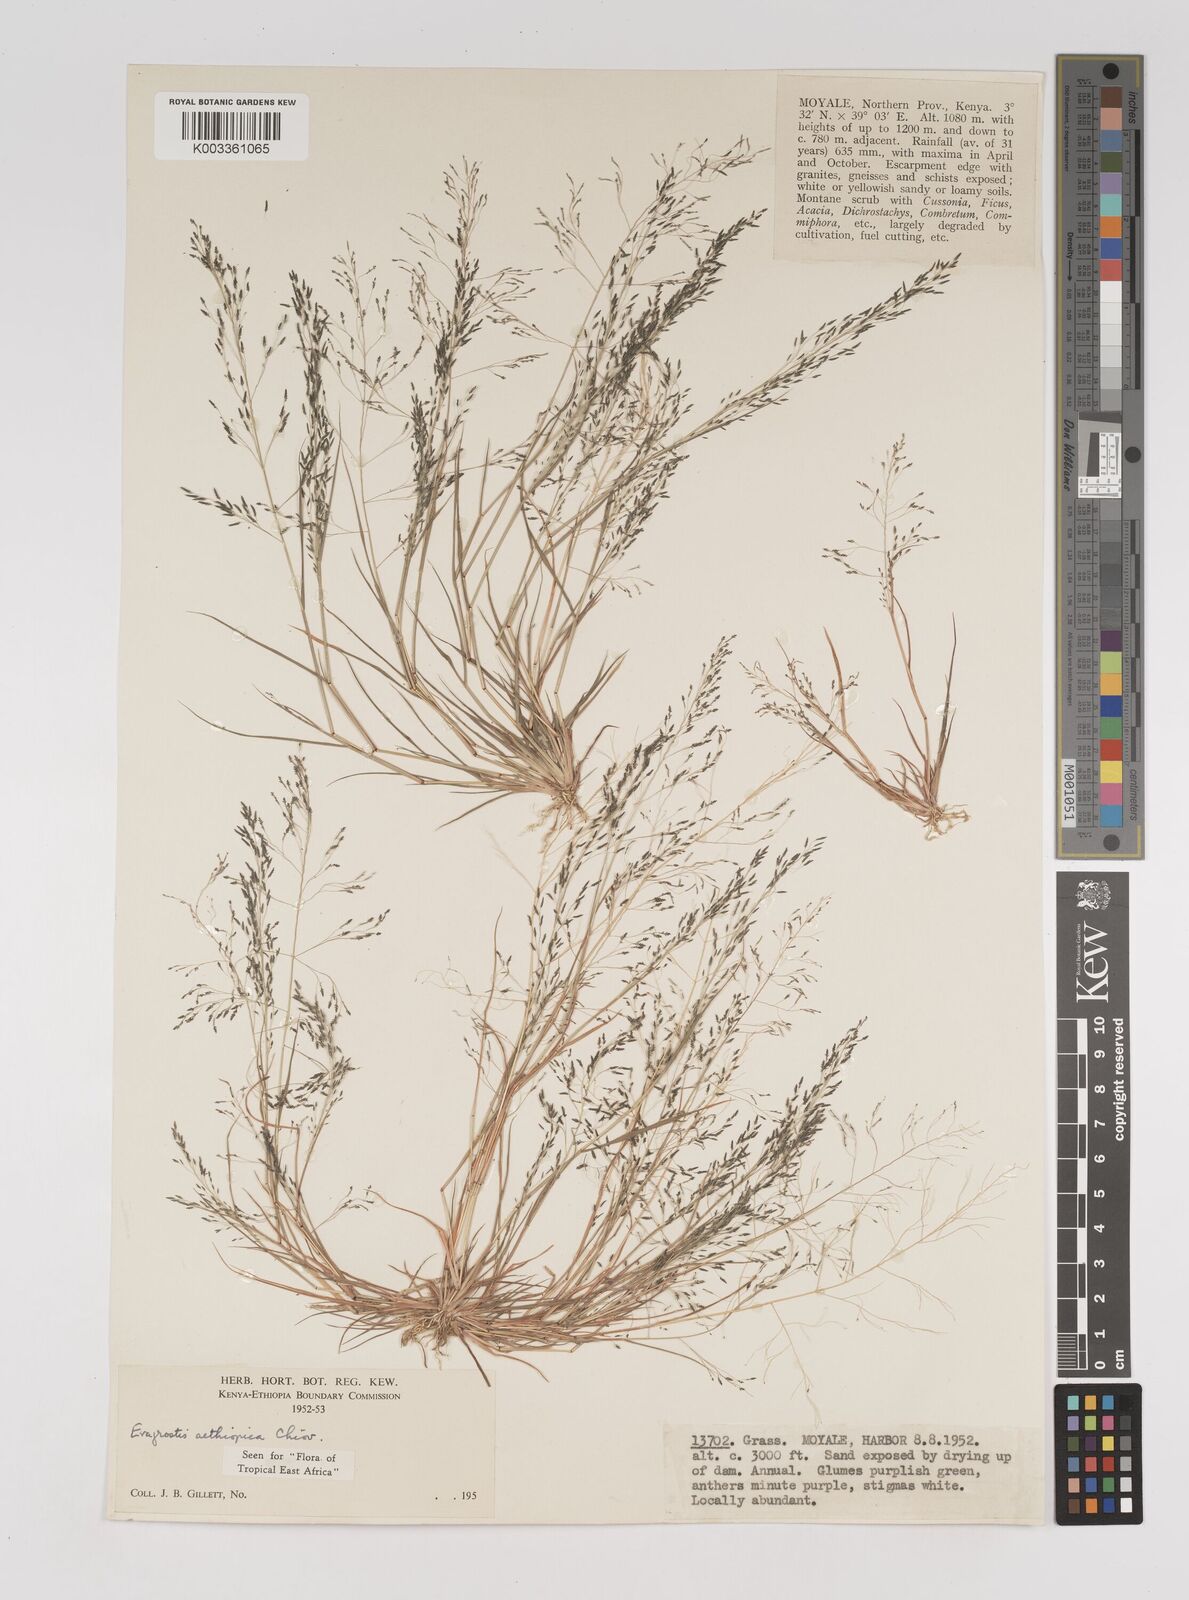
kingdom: Plantae
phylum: Tracheophyta
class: Liliopsida
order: Poales
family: Poaceae
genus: Eragrostis
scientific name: Eragrostis aethiopica
